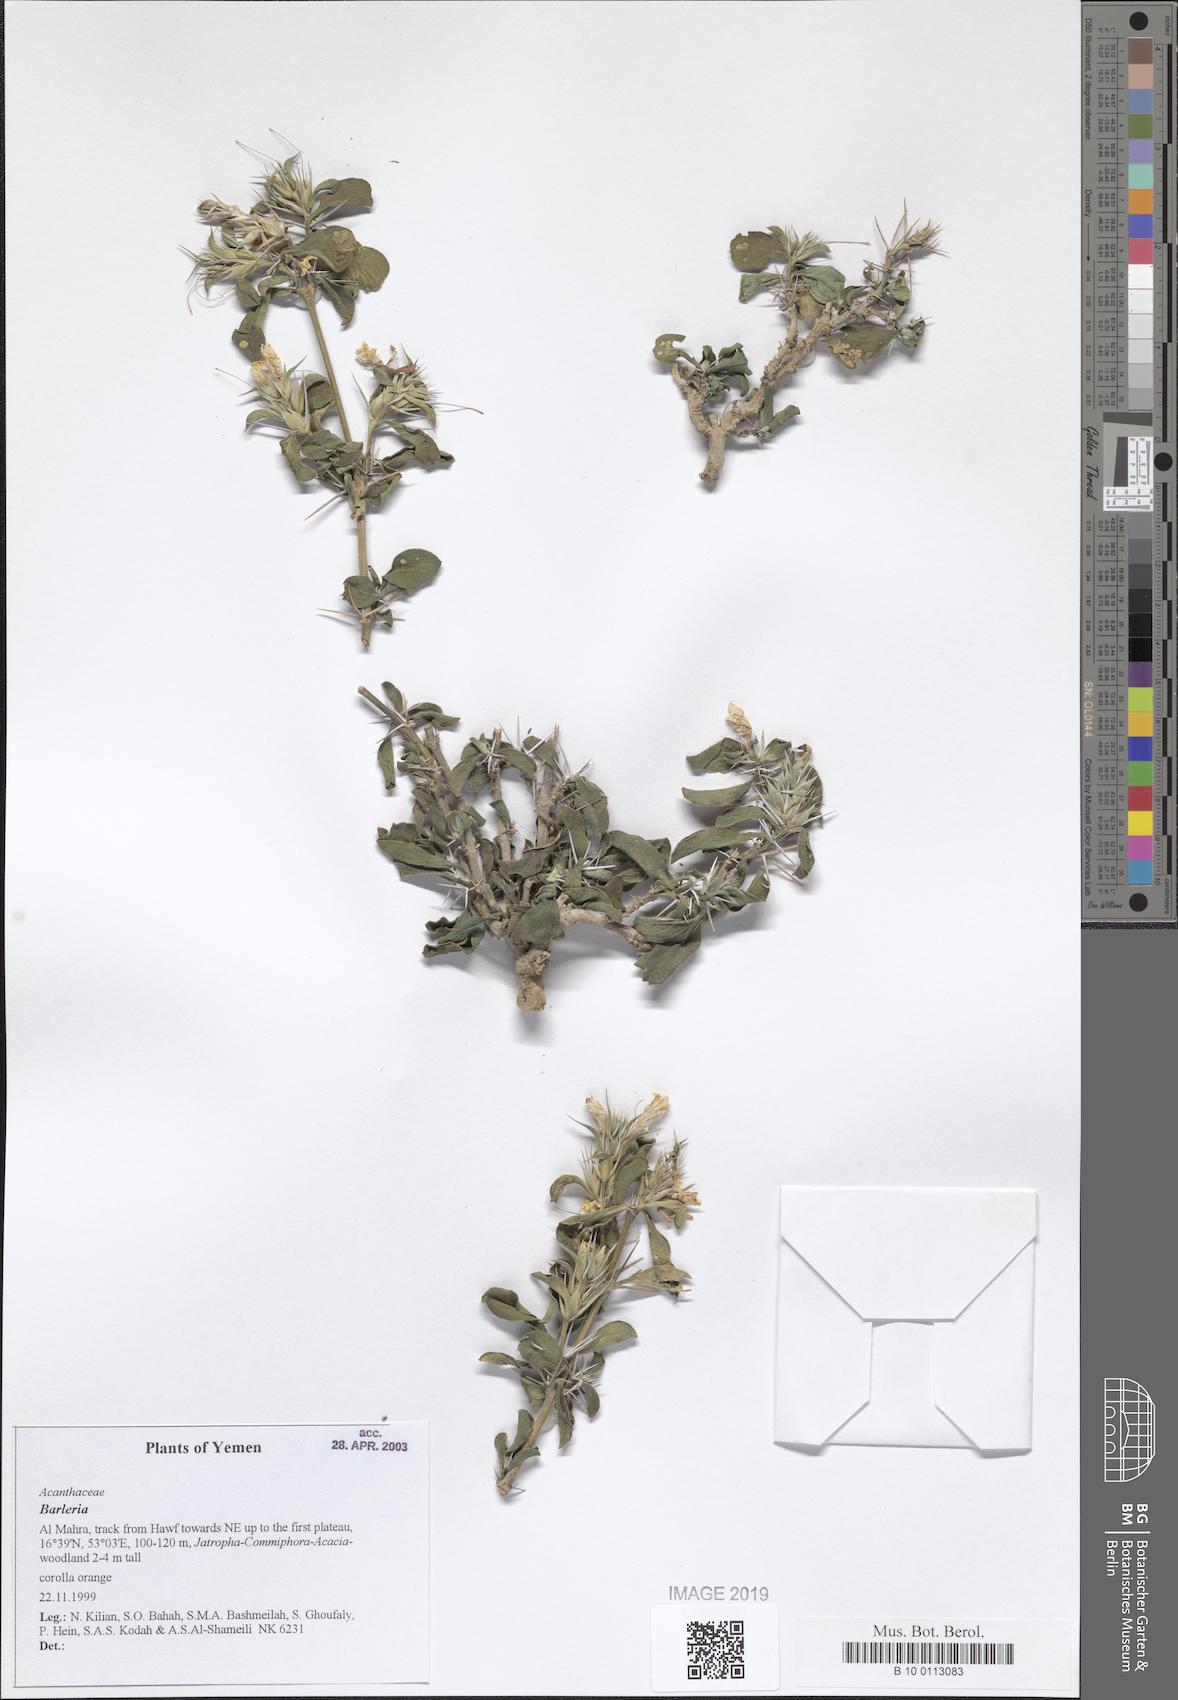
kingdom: Plantae
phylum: Tracheophyta
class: Magnoliopsida
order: Lamiales
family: Acanthaceae
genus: Barleria
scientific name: Barleria
